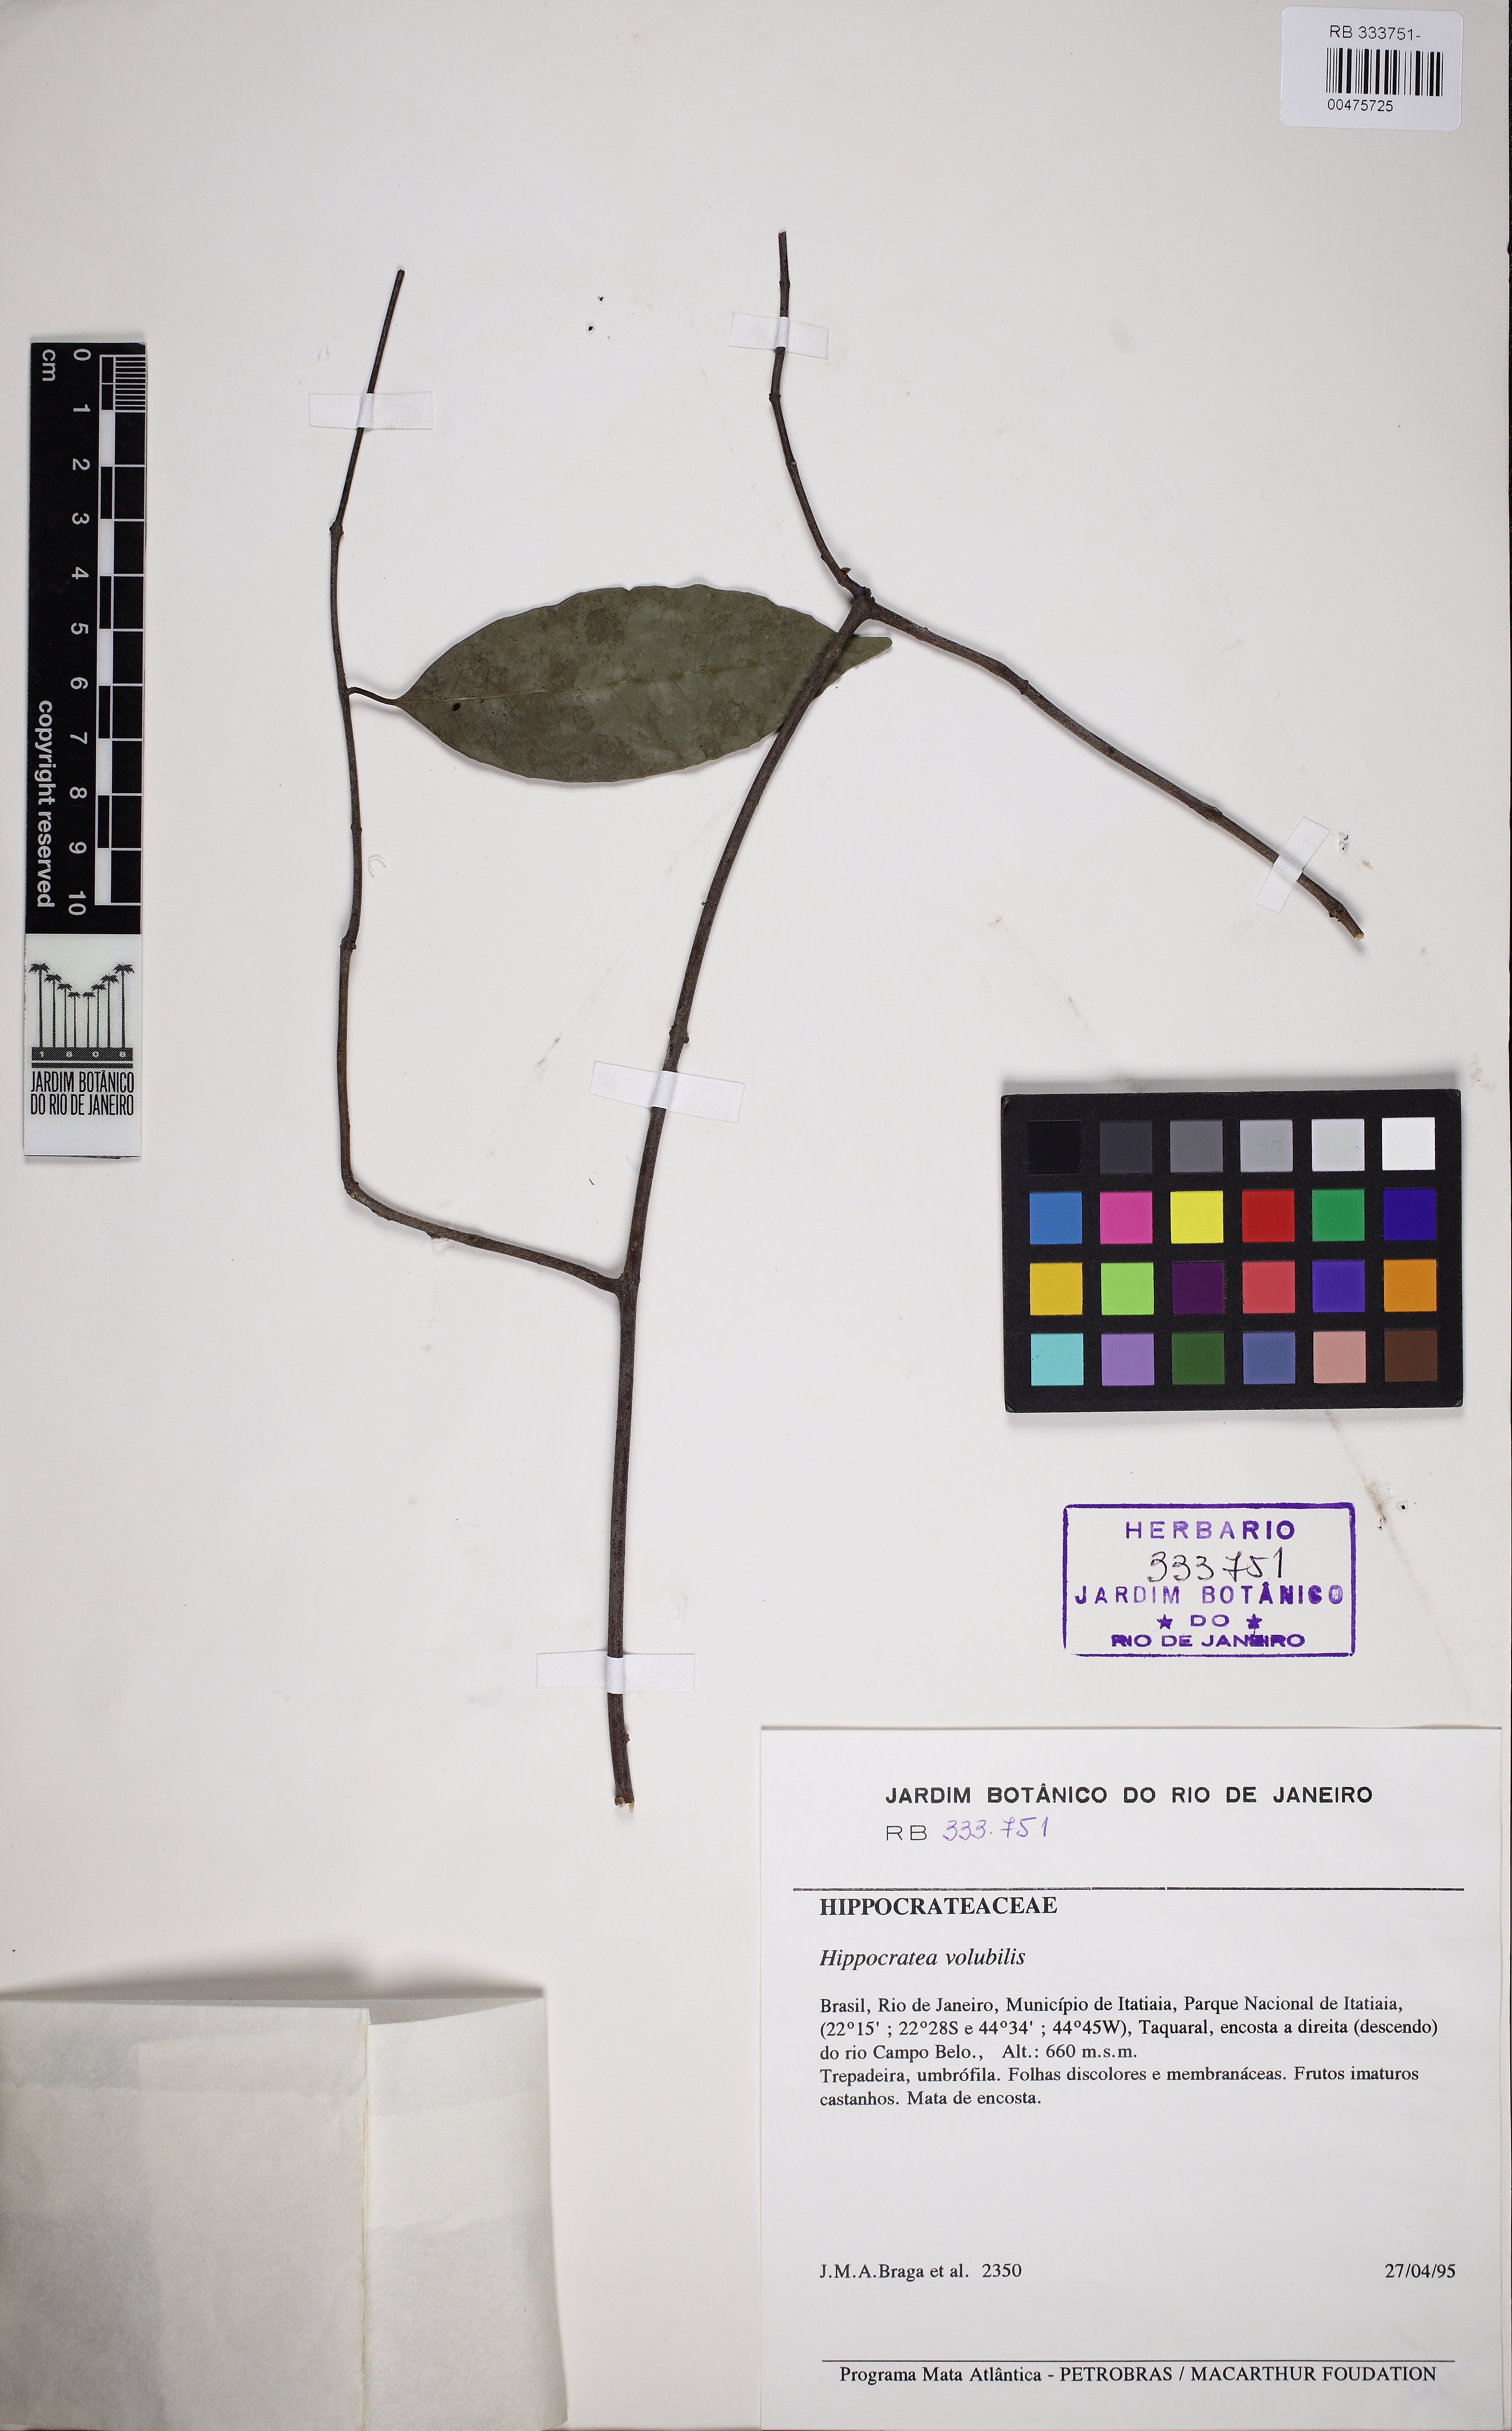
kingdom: Plantae
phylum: Tracheophyta
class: Magnoliopsida
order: Celastrales
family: Celastraceae
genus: Hippocratea
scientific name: Hippocratea volubilis
